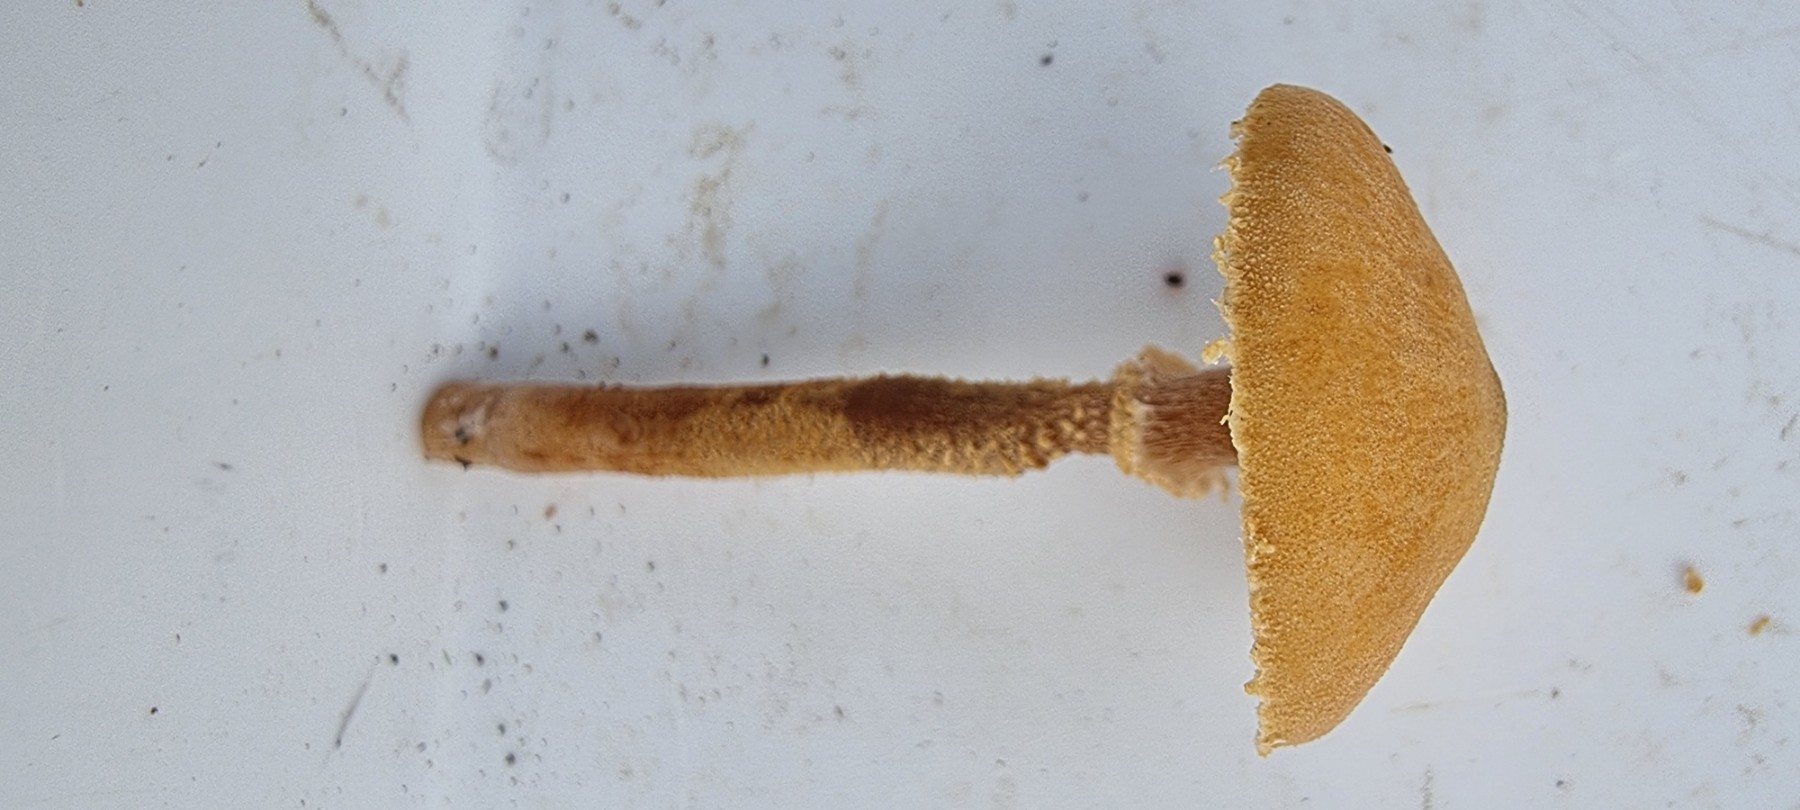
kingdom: Fungi
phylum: Basidiomycota
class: Agaricomycetes
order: Agaricales
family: Tricholomataceae
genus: Cystoderma
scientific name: Cystoderma amianthinum
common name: okkergul grynhat
